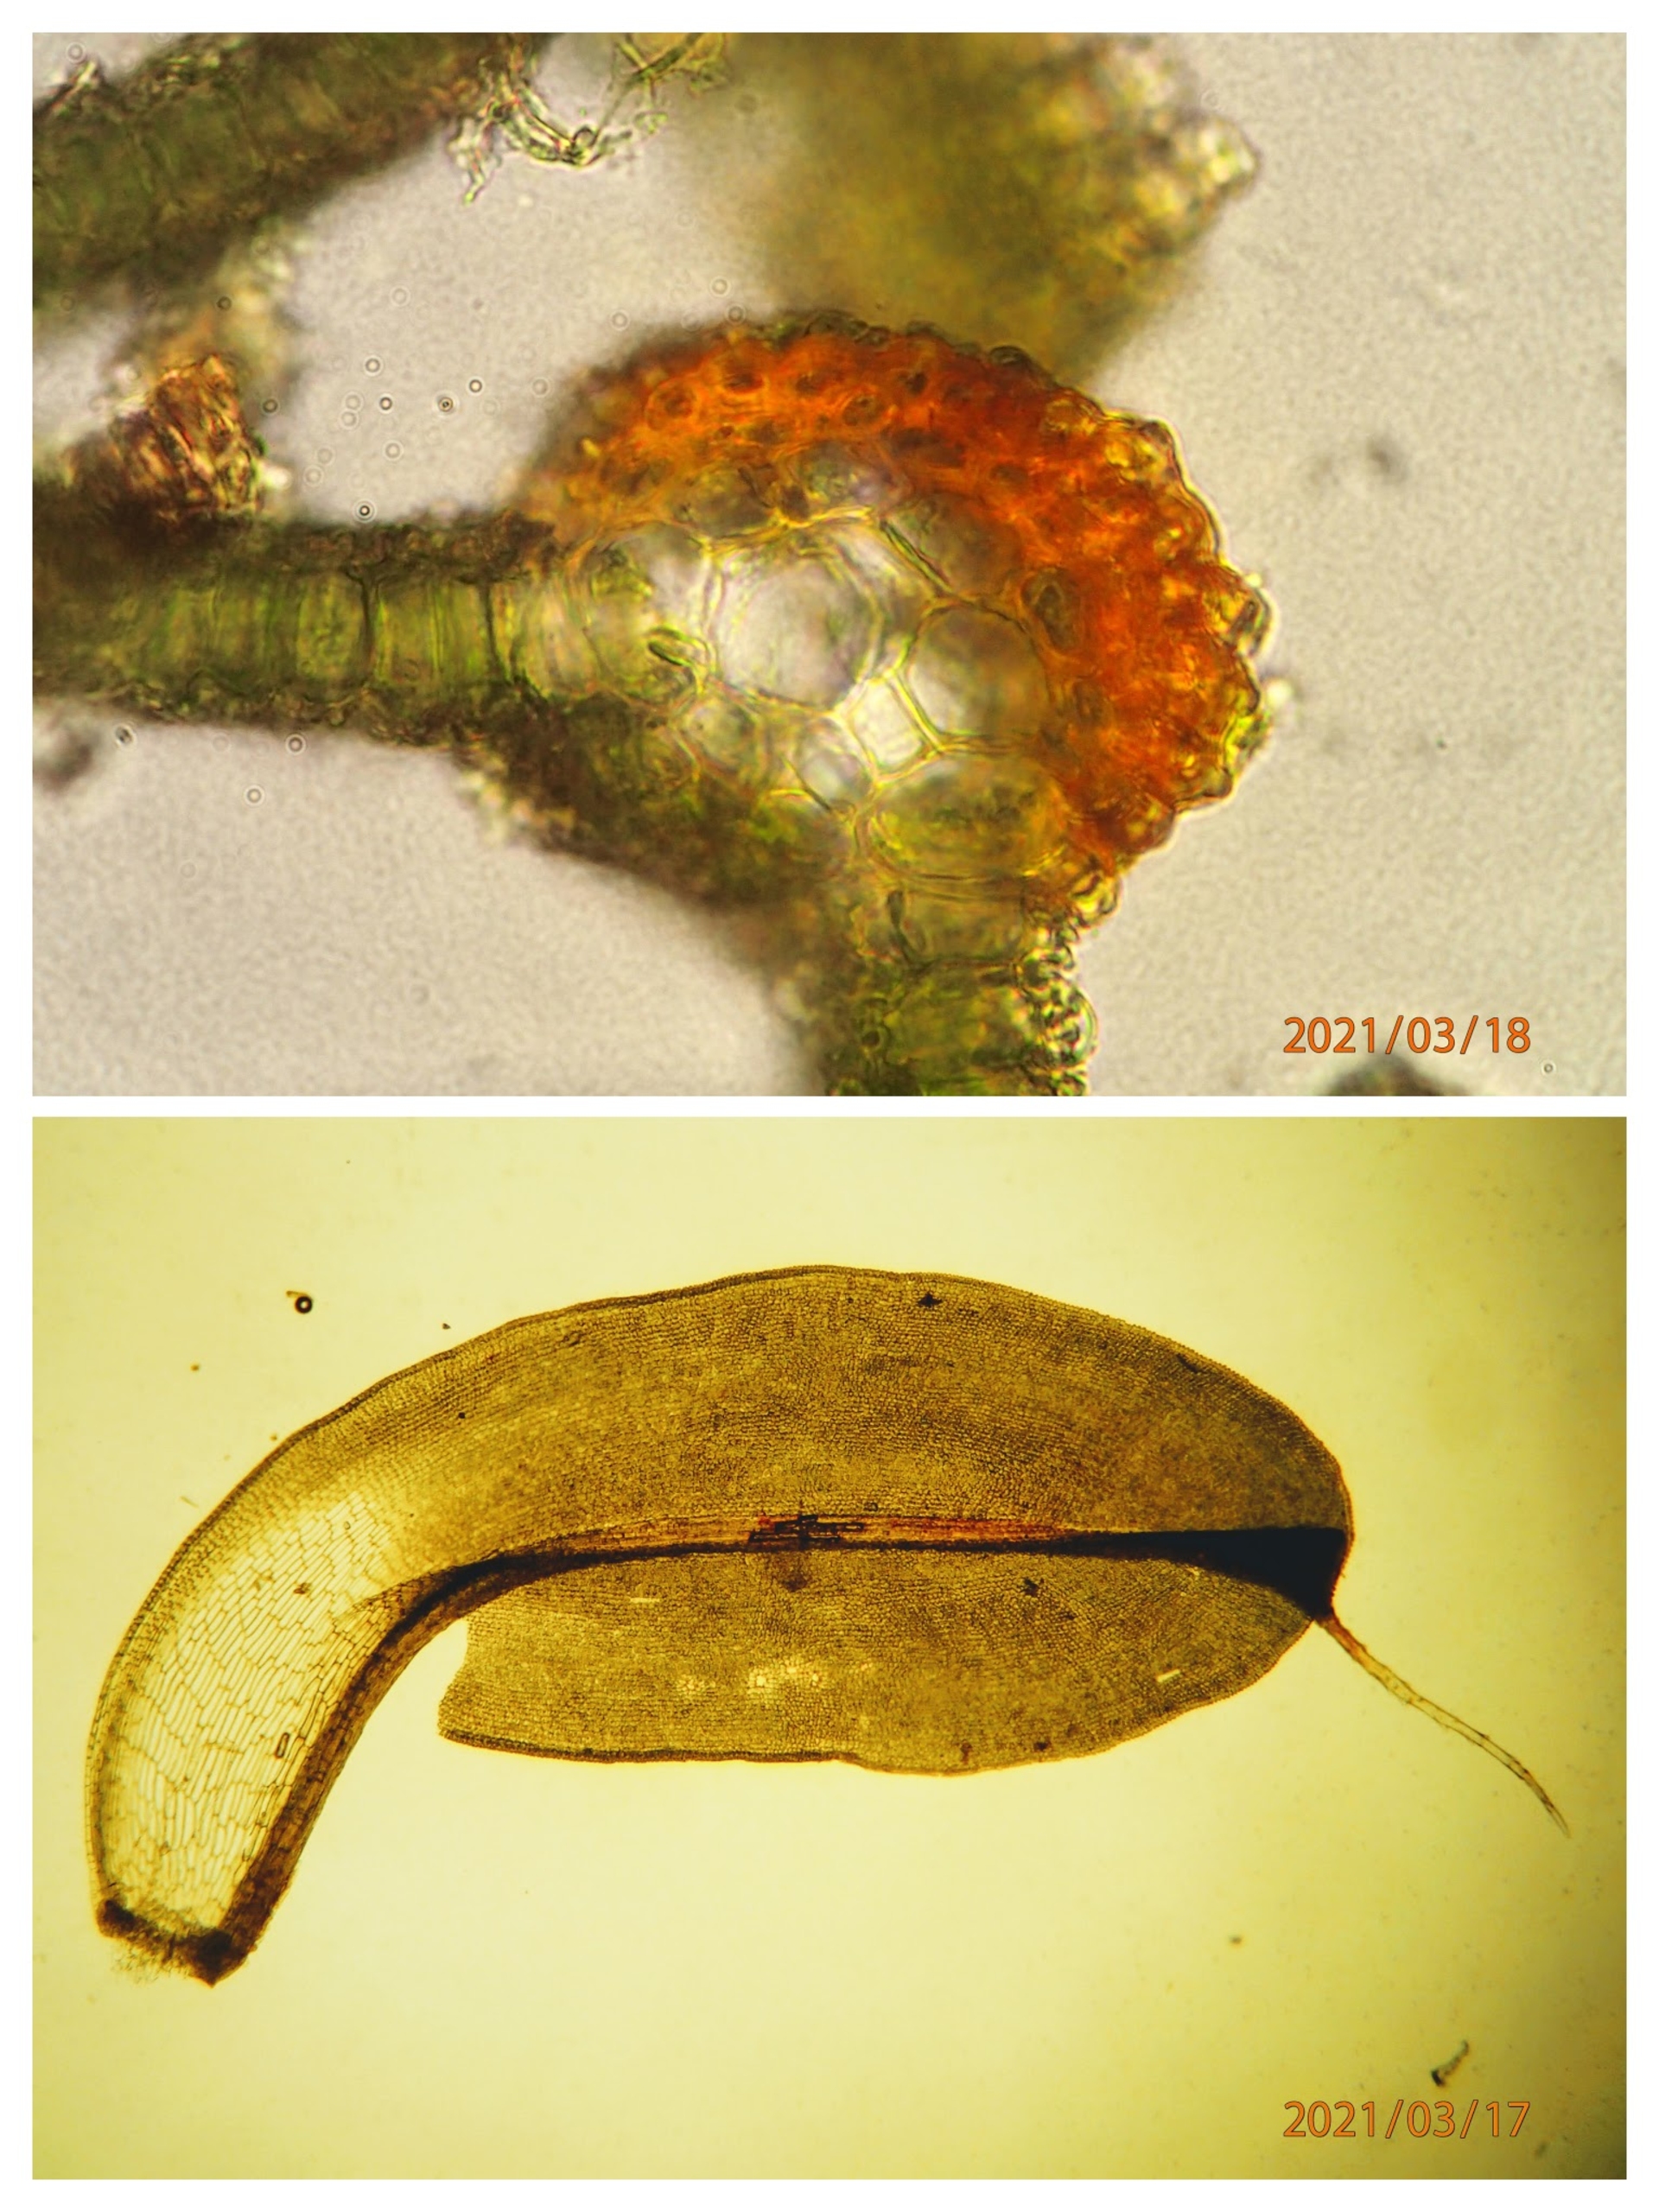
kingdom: Plantae
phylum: Bryophyta
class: Bryopsida
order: Pottiales
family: Pottiaceae
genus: Syntrichia
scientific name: Syntrichia ruralis
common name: Tag-hårstjerne
